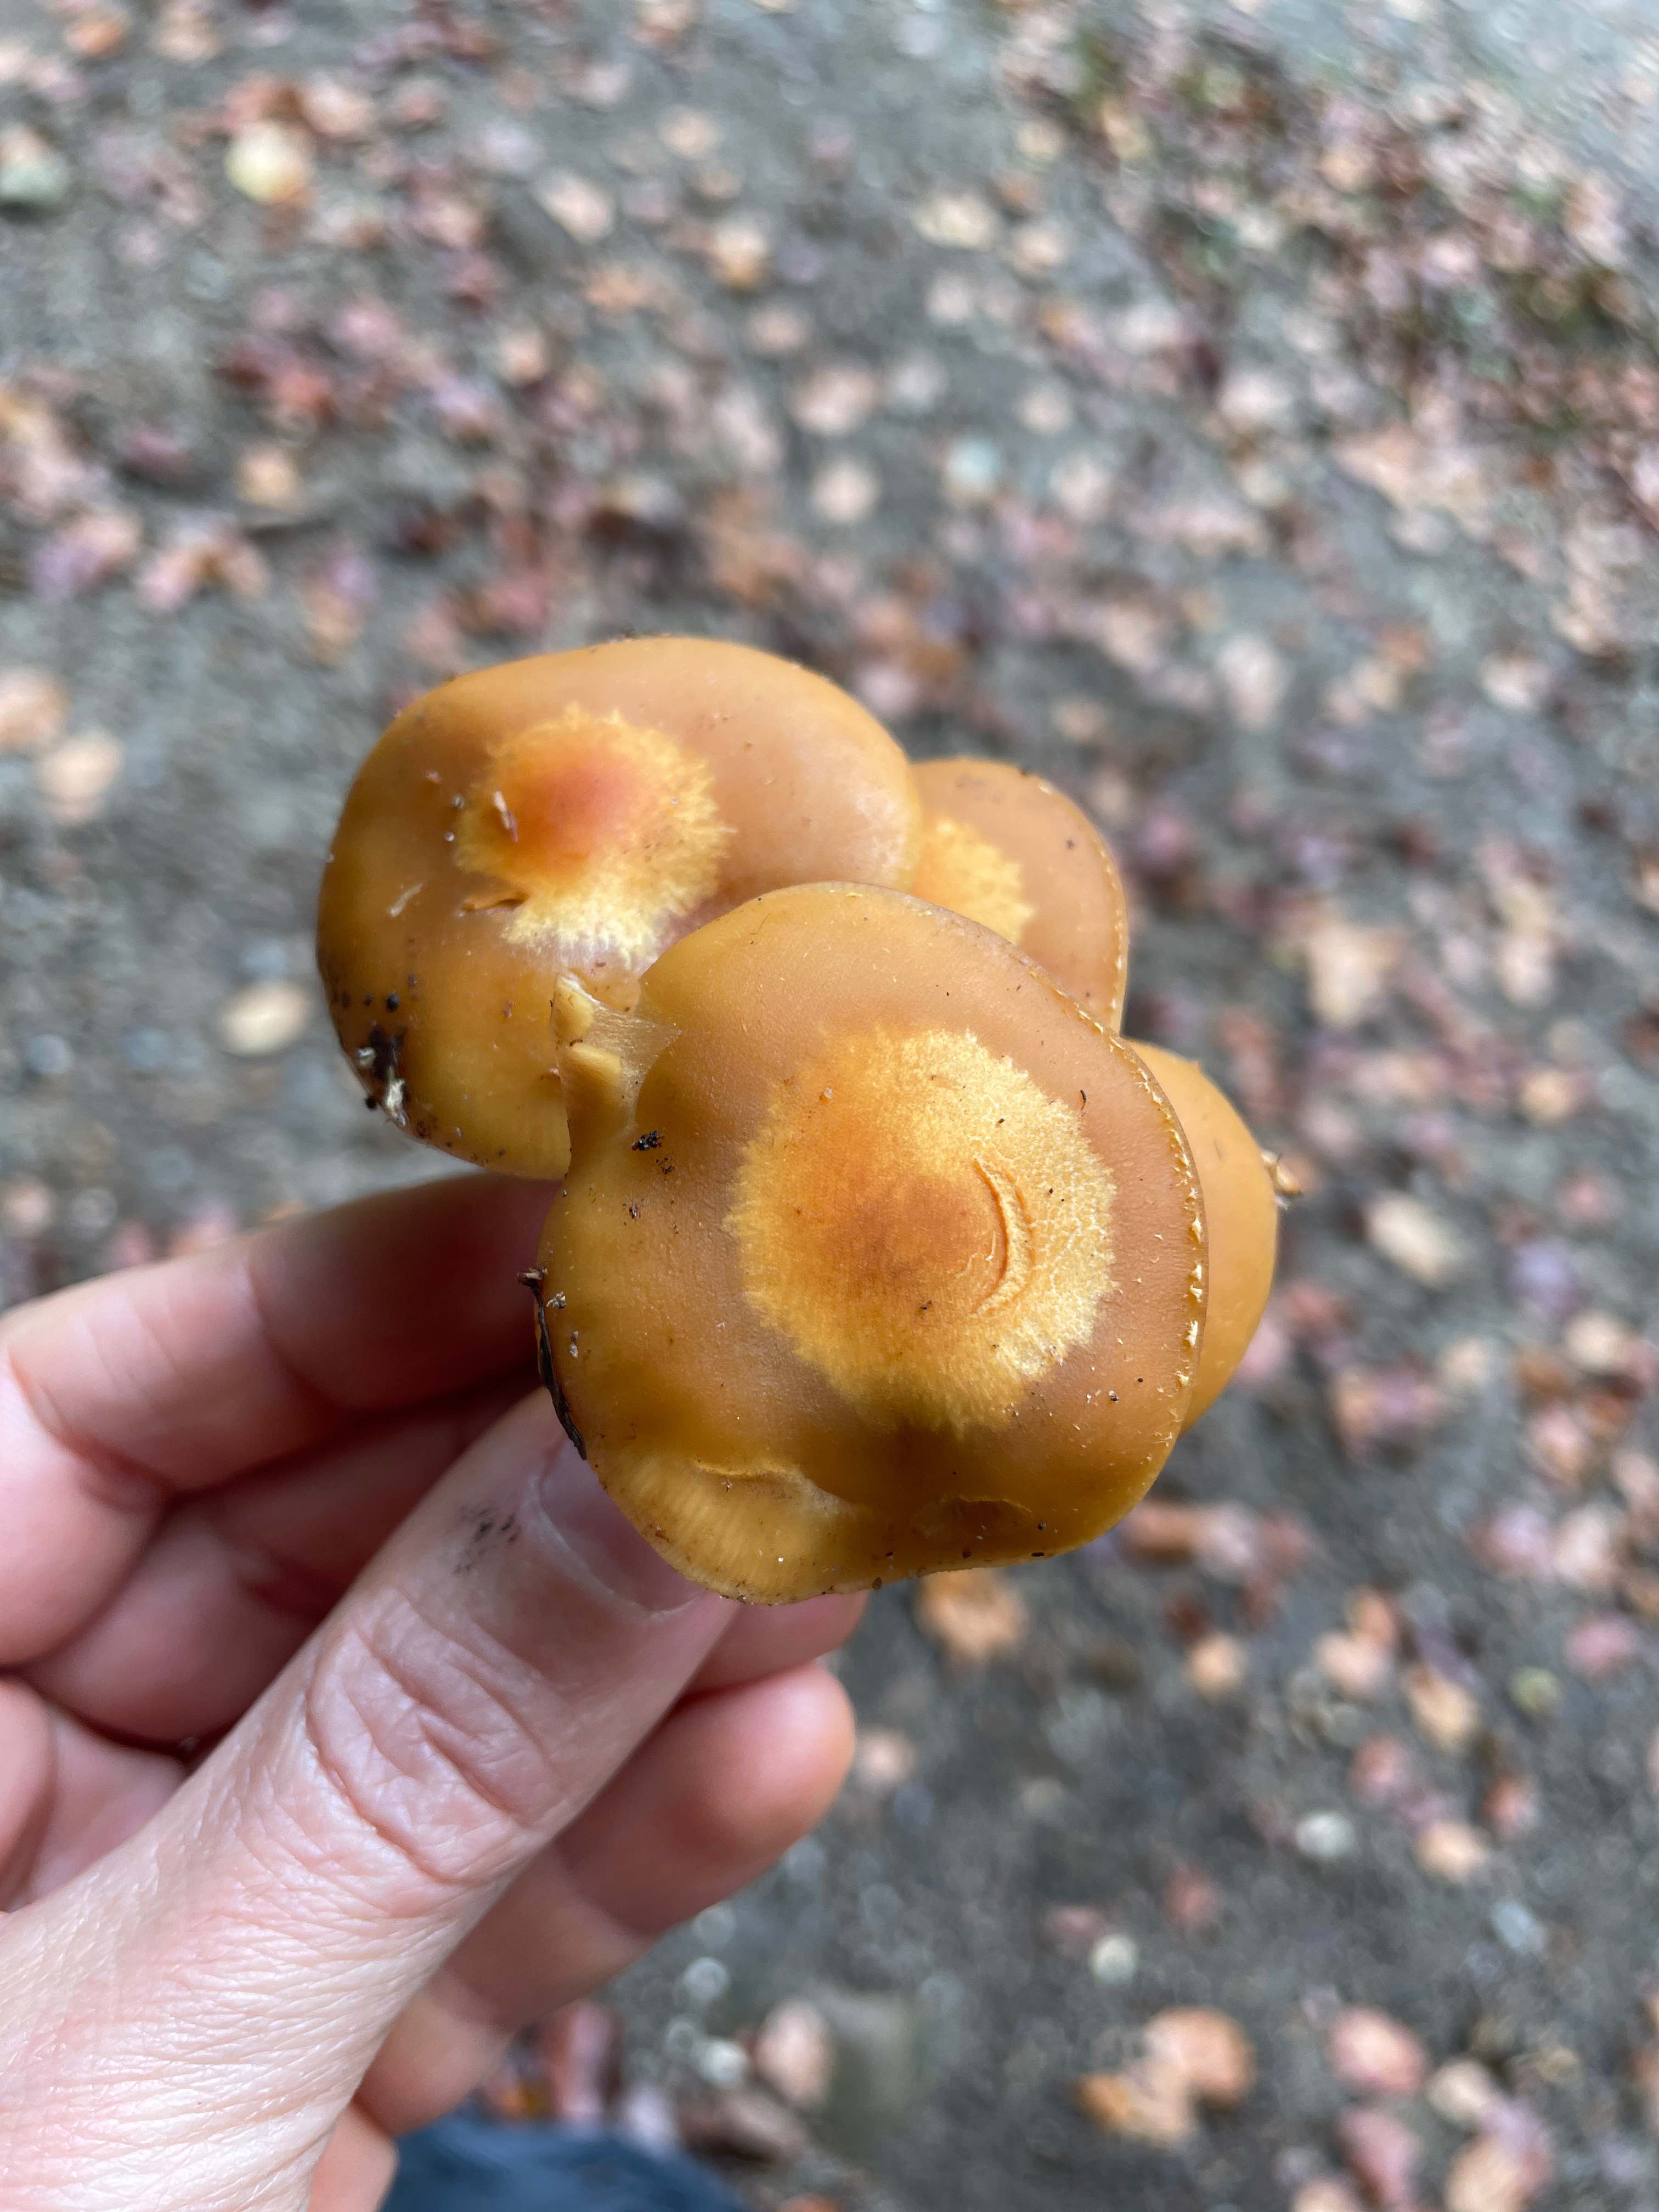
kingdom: Fungi
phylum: Basidiomycota
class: Agaricomycetes
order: Agaricales
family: Strophariaceae
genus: Kuehneromyces
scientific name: Kuehneromyces mutabilis
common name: foranderlig skælhat
